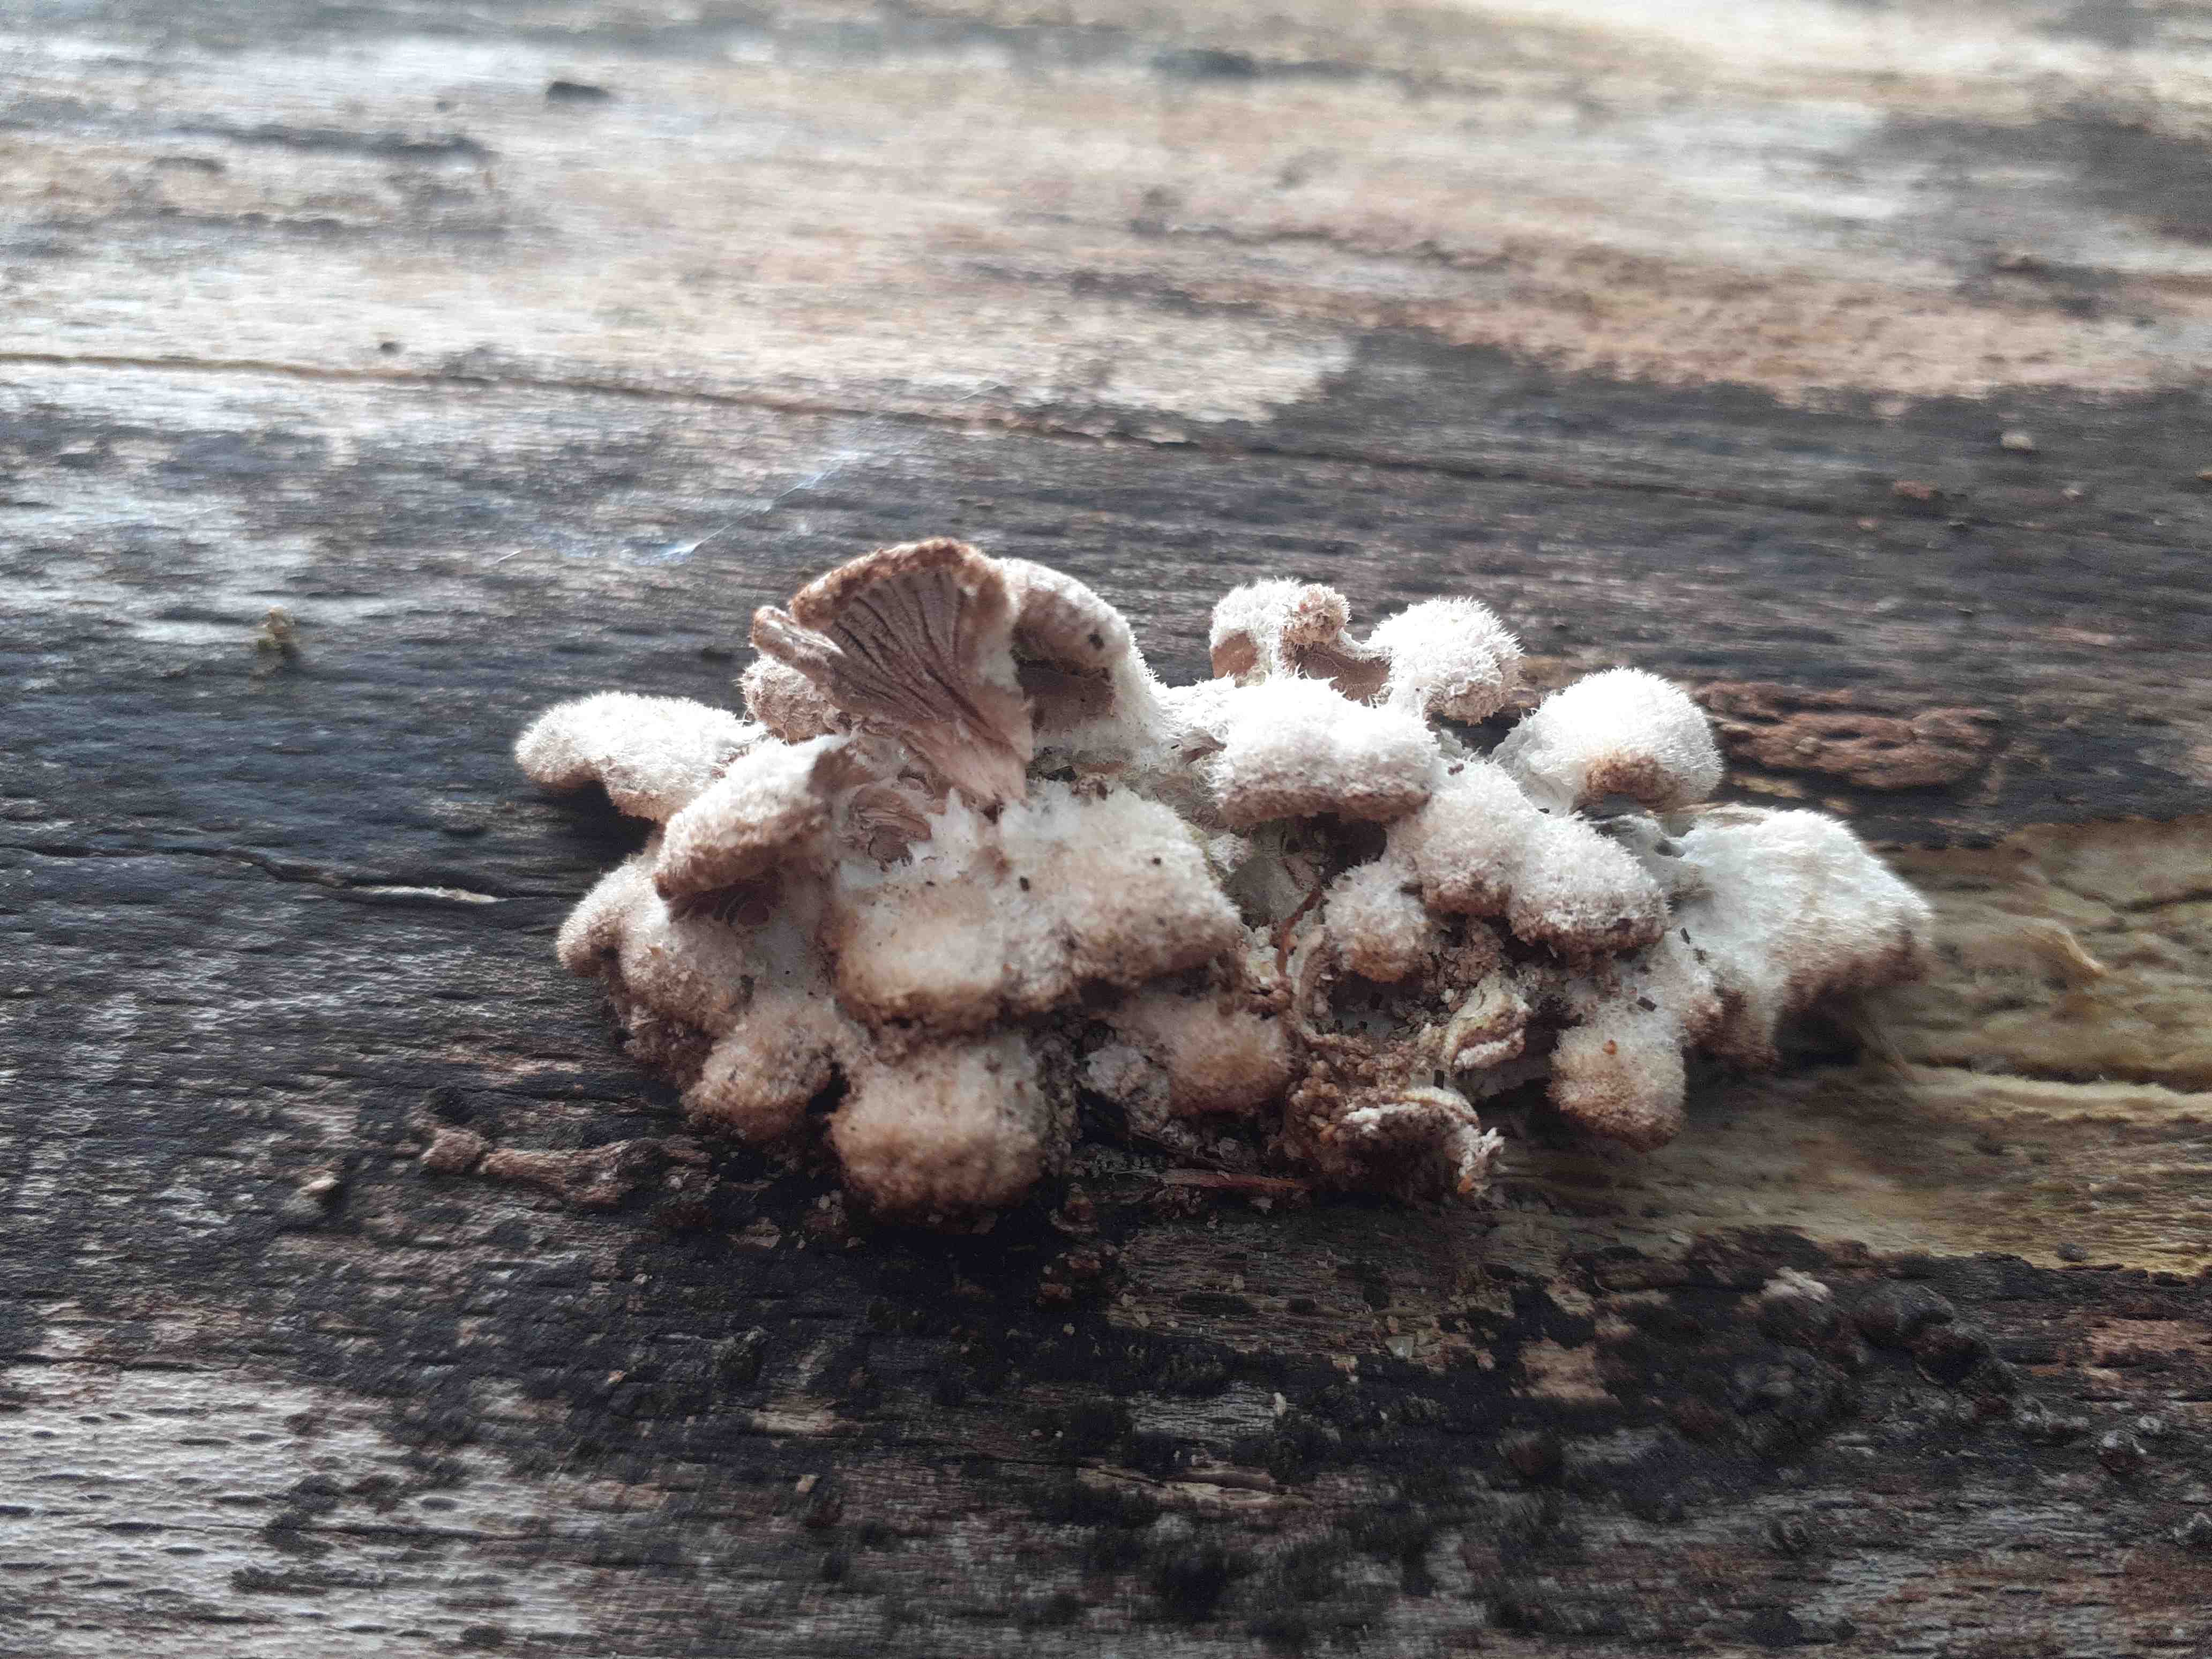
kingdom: Fungi
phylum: Basidiomycota
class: Agaricomycetes
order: Agaricales
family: Schizophyllaceae
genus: Schizophyllum
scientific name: Schizophyllum commune
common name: kløvblad
